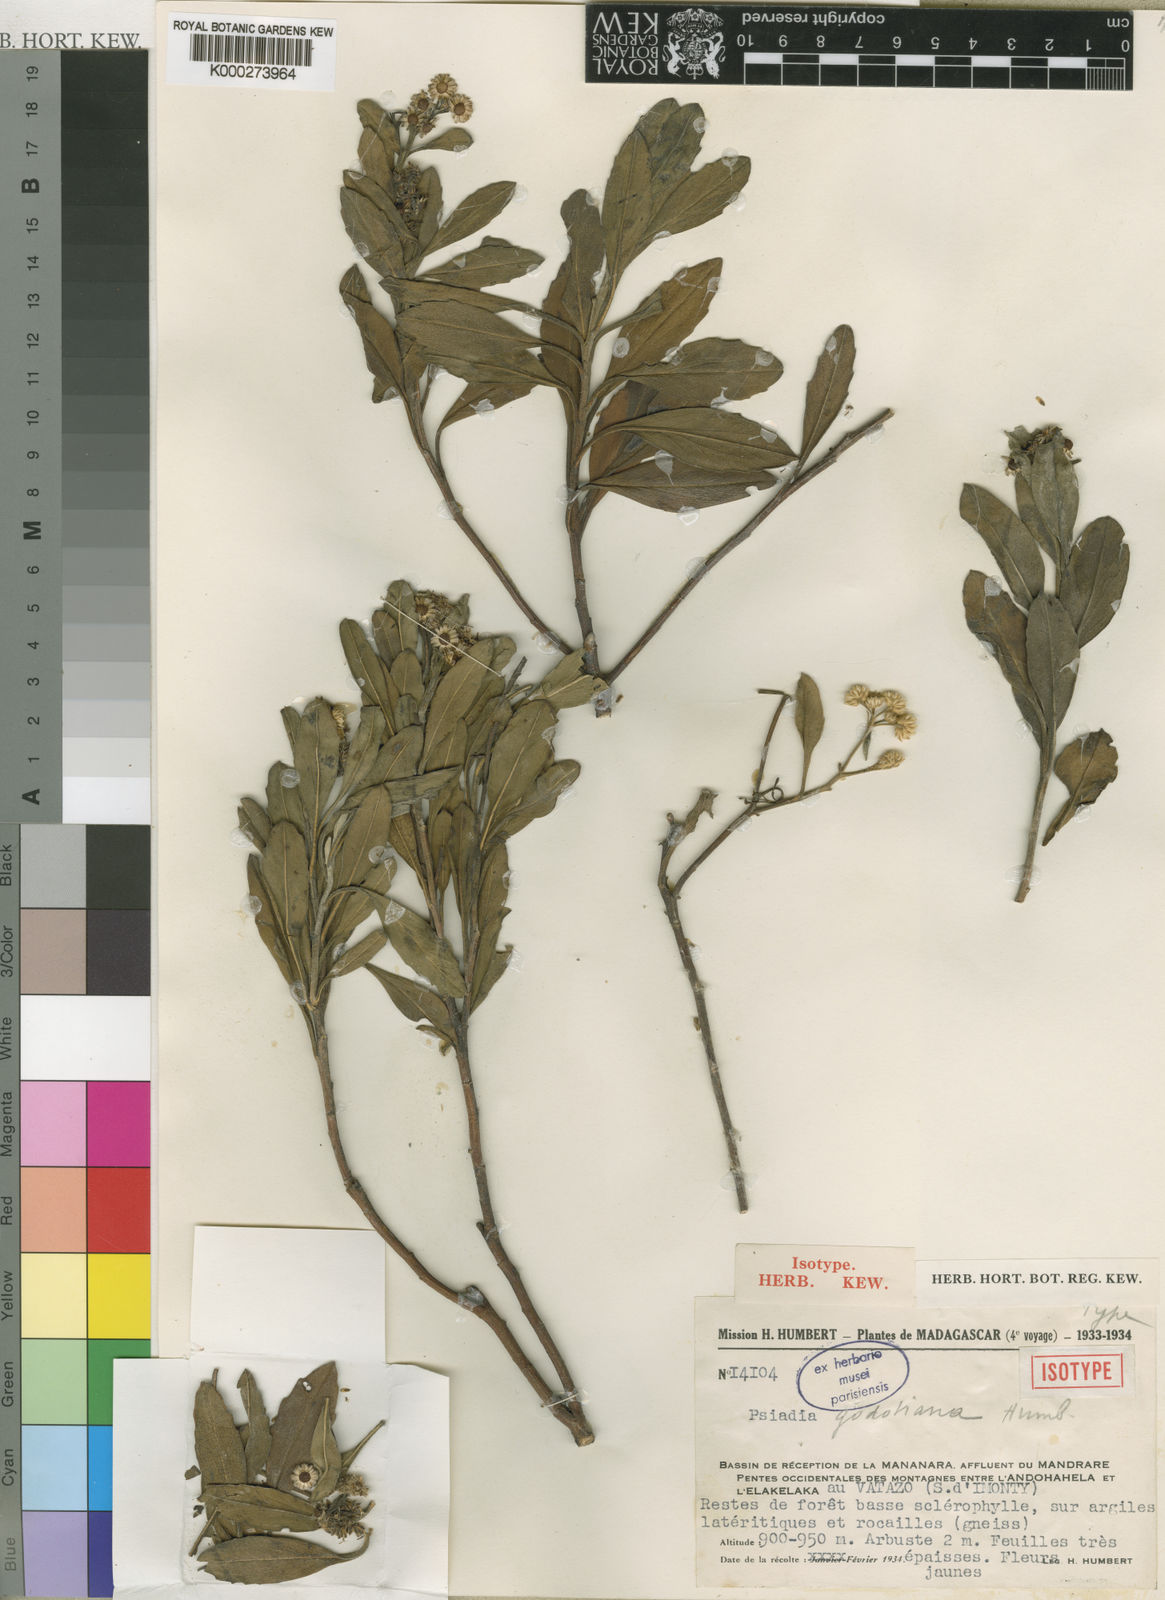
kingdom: Plantae
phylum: Tracheophyta
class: Magnoliopsida
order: Asterales
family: Asteraceae
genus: Psiadia
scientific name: Psiadia godotiana
